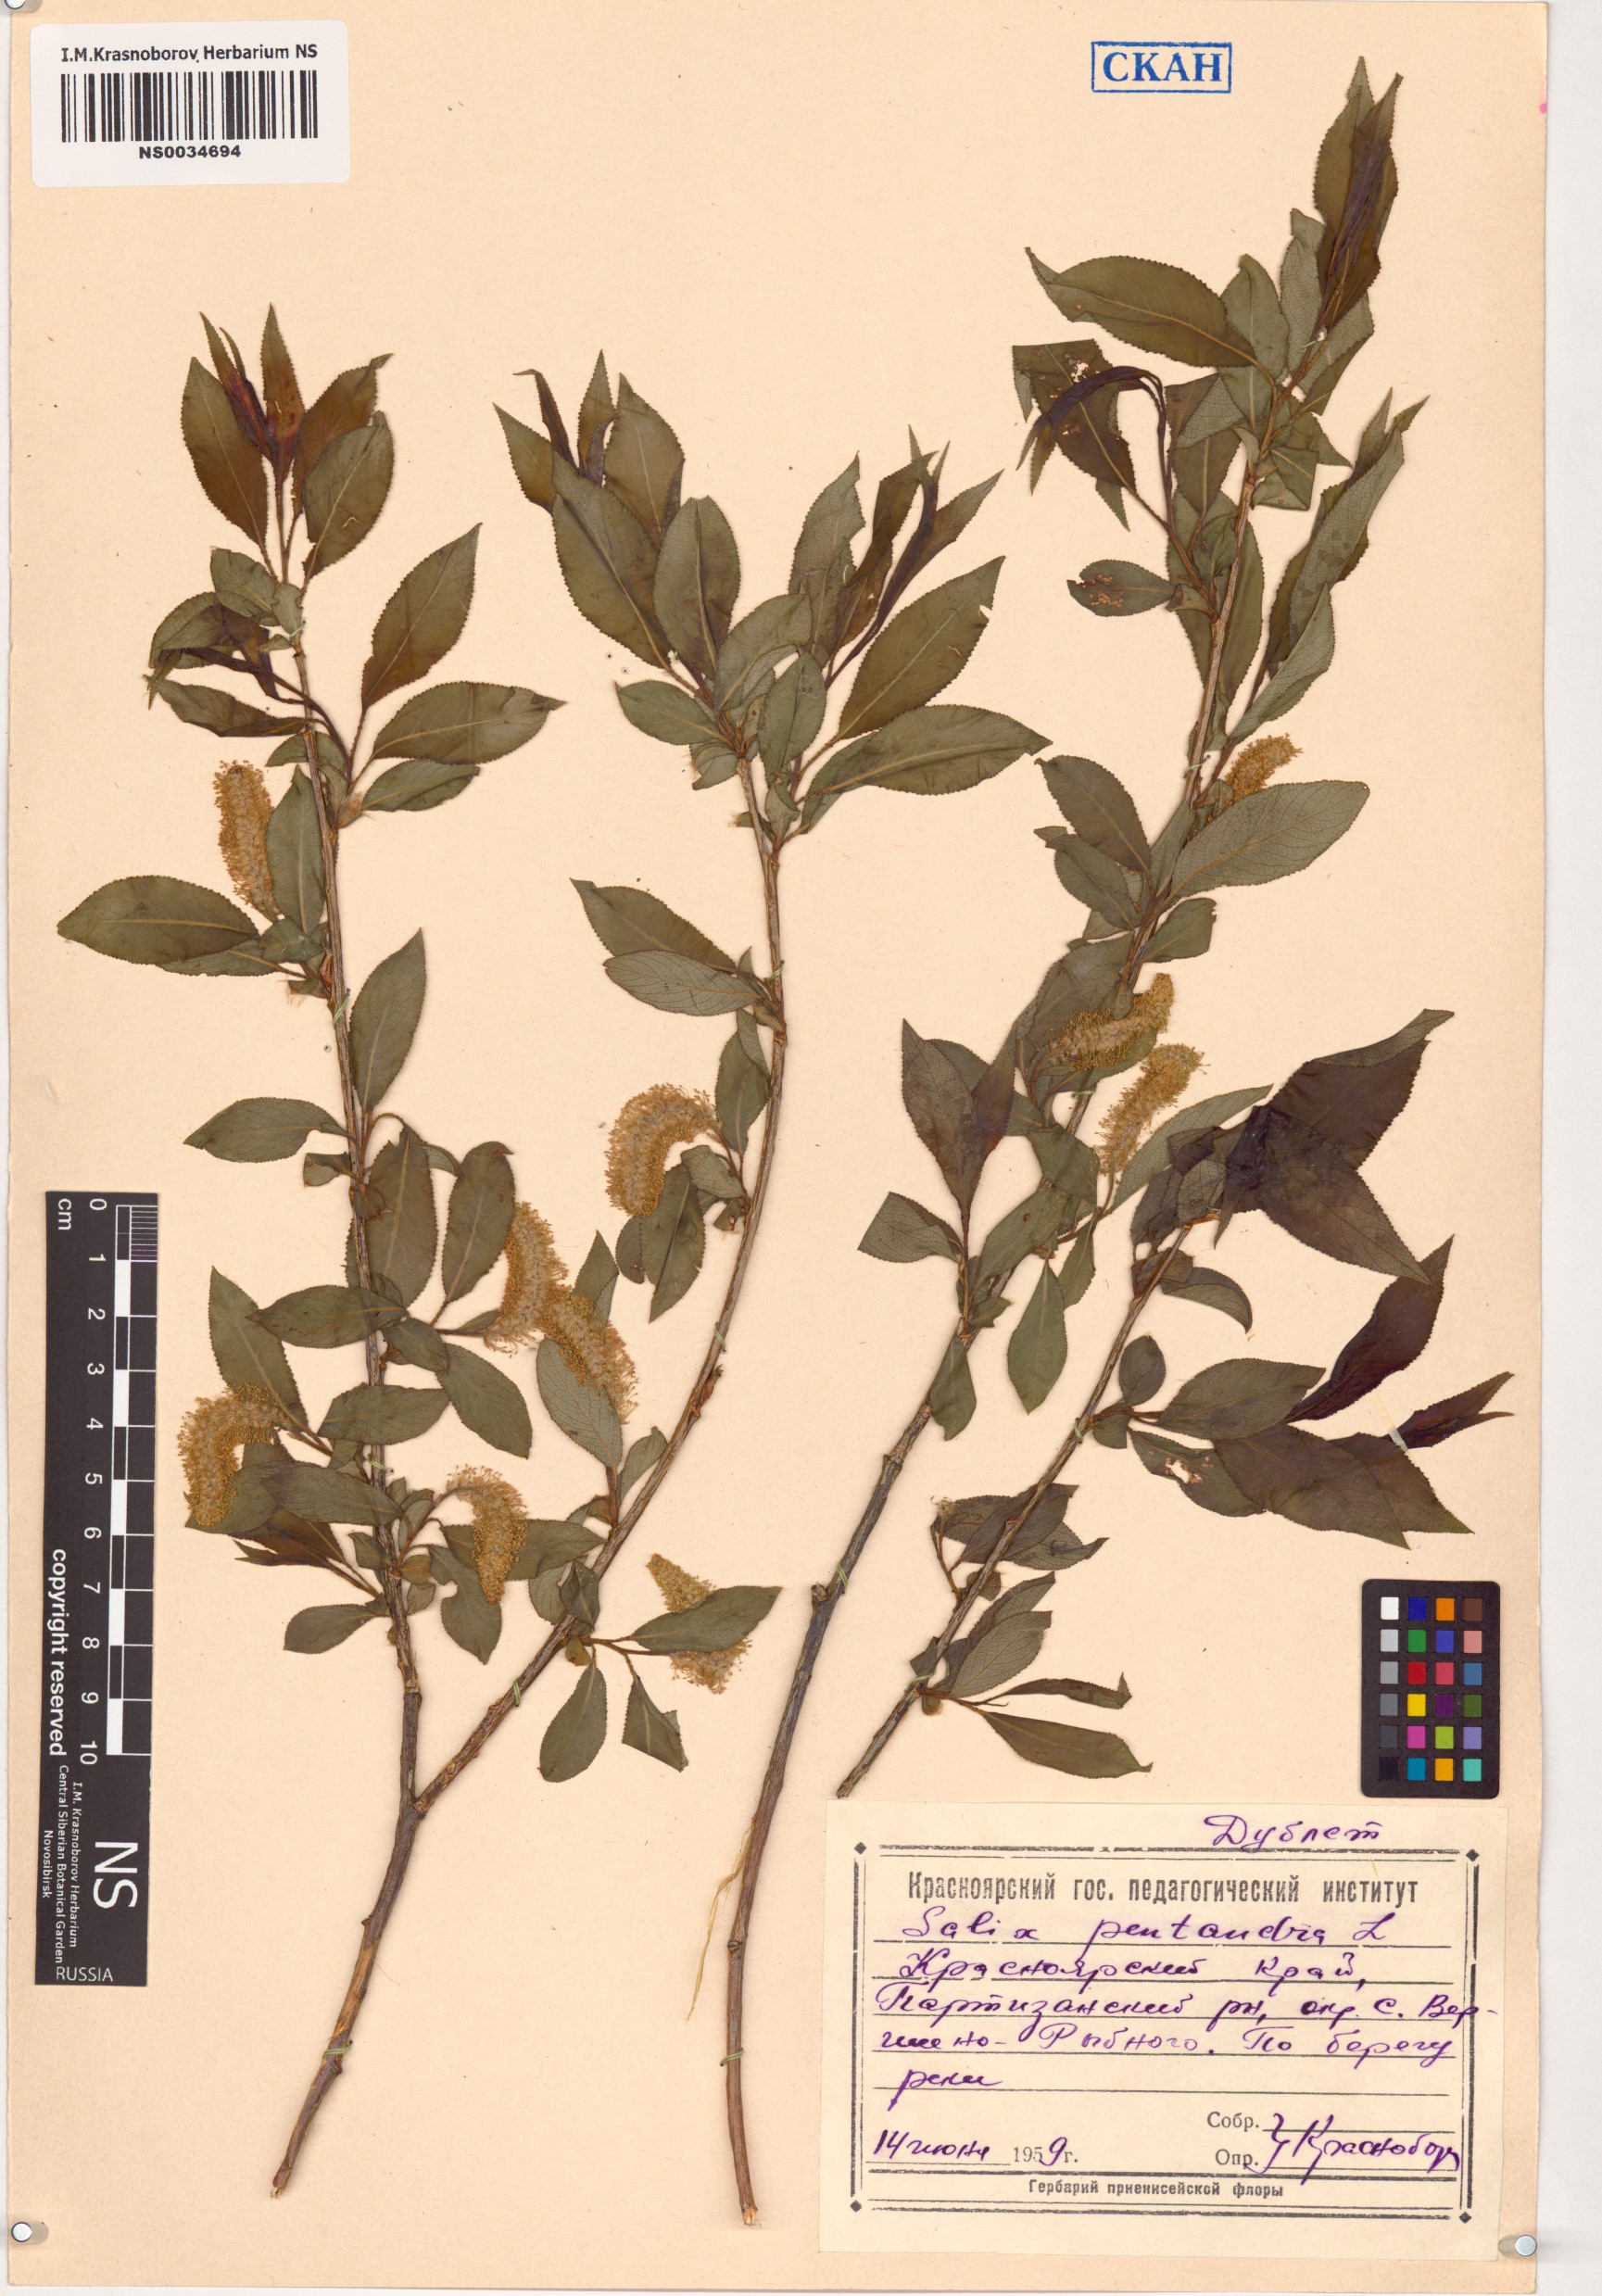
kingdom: Plantae
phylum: Tracheophyta
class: Magnoliopsida
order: Malpighiales
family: Salicaceae
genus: Salix
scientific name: Salix pentandra
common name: Bay willow
